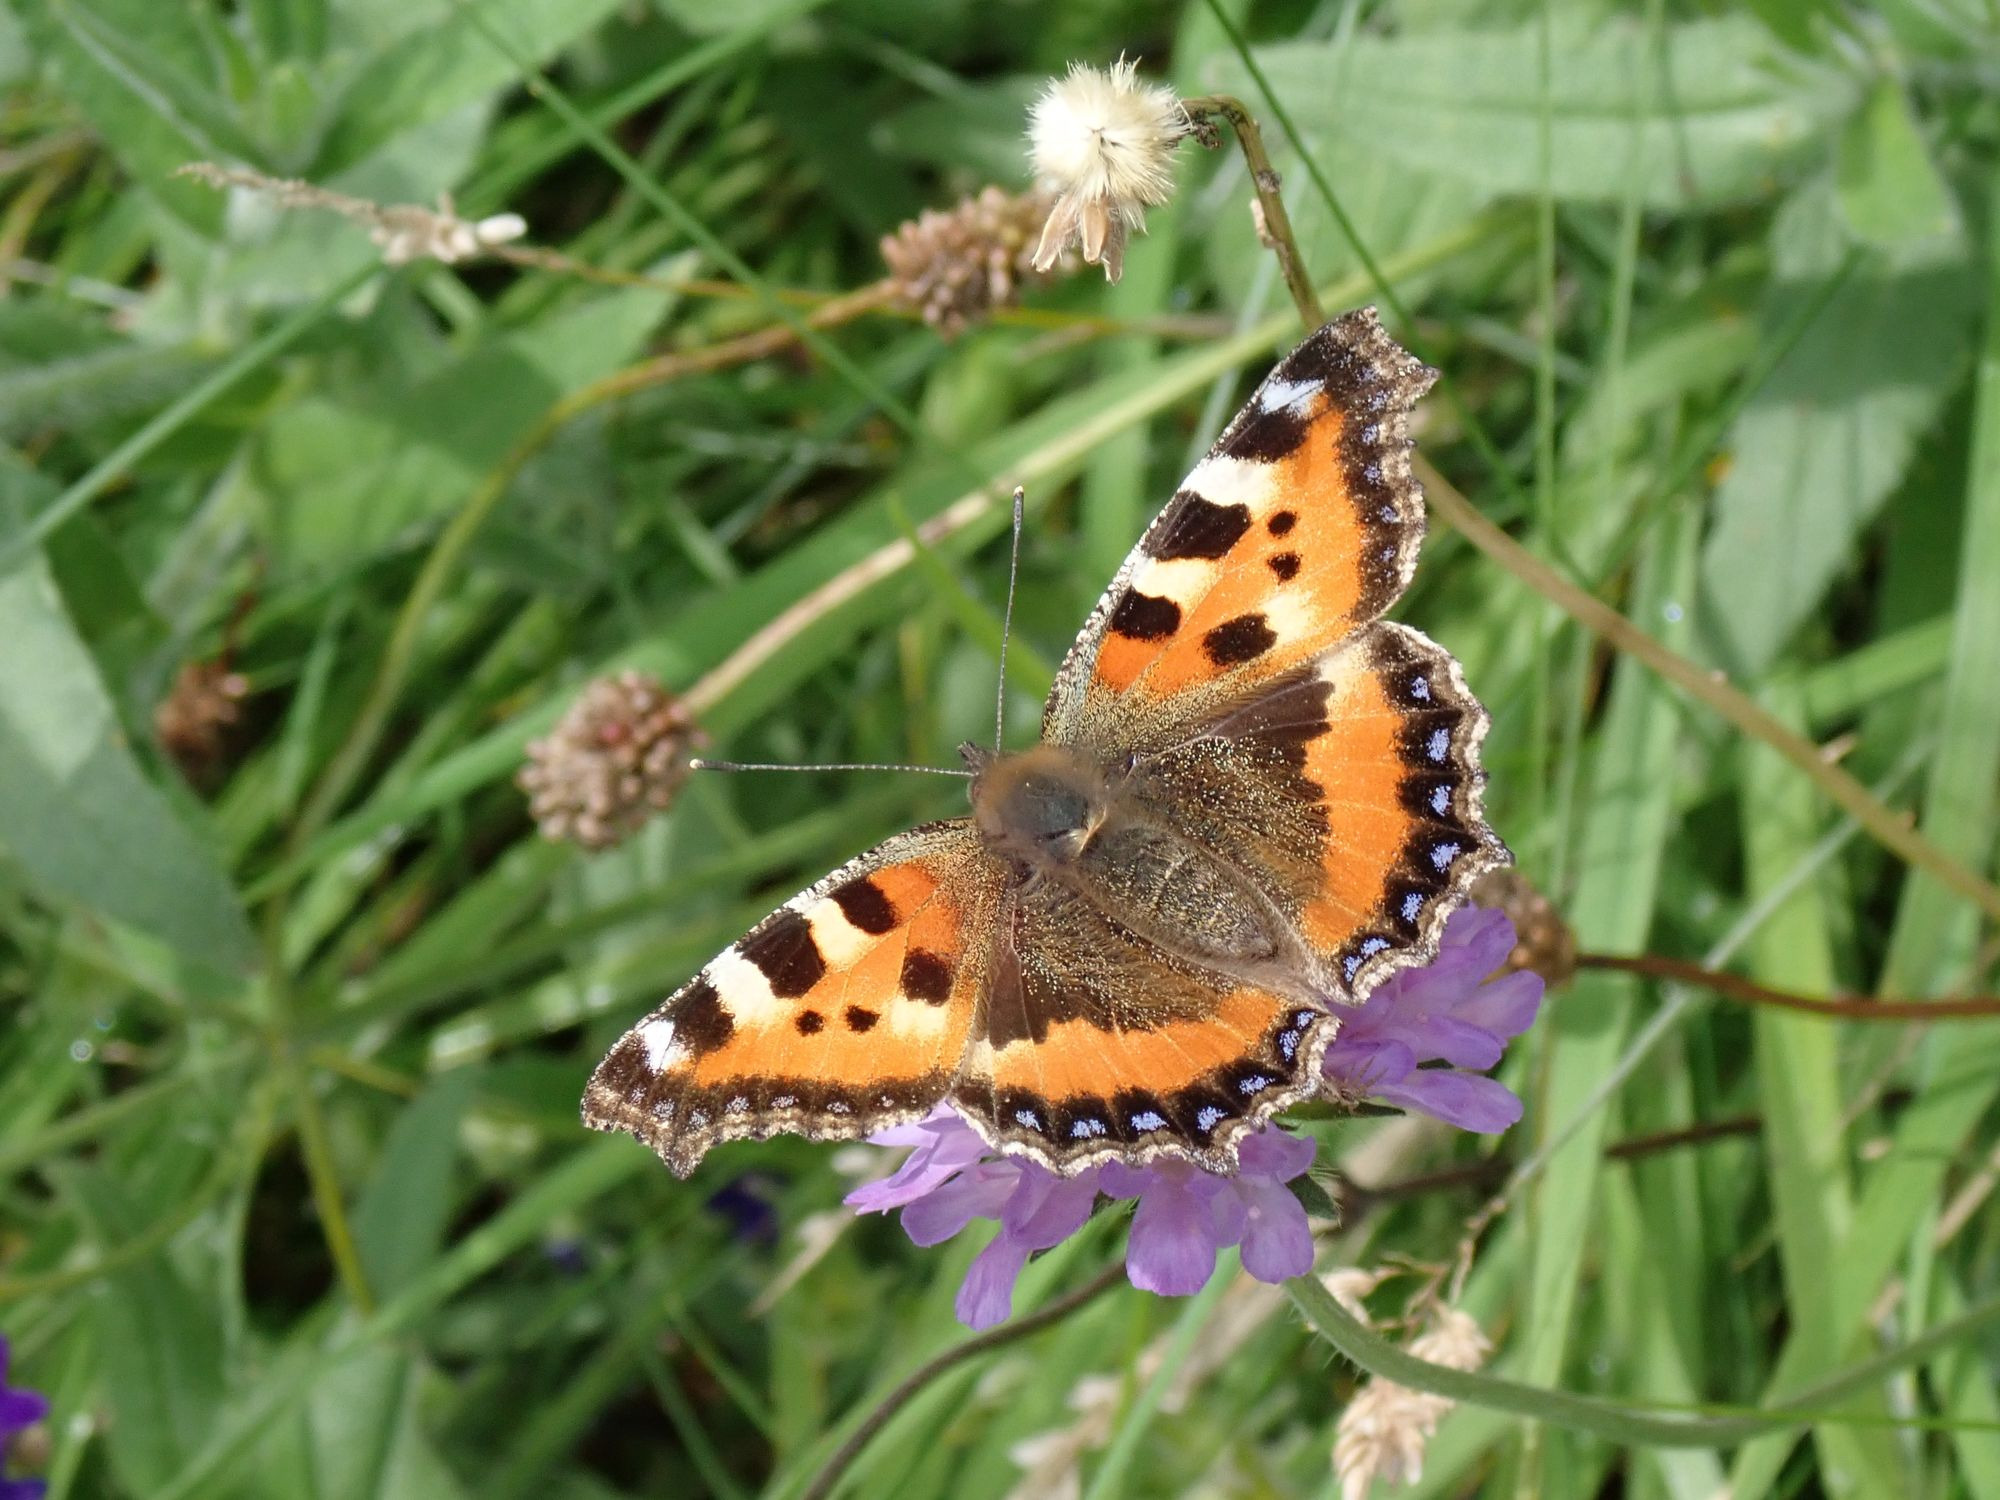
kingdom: Animalia
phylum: Arthropoda
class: Insecta
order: Lepidoptera
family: Nymphalidae
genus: Aglais
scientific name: Aglais urticae
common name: Nældens takvinge
